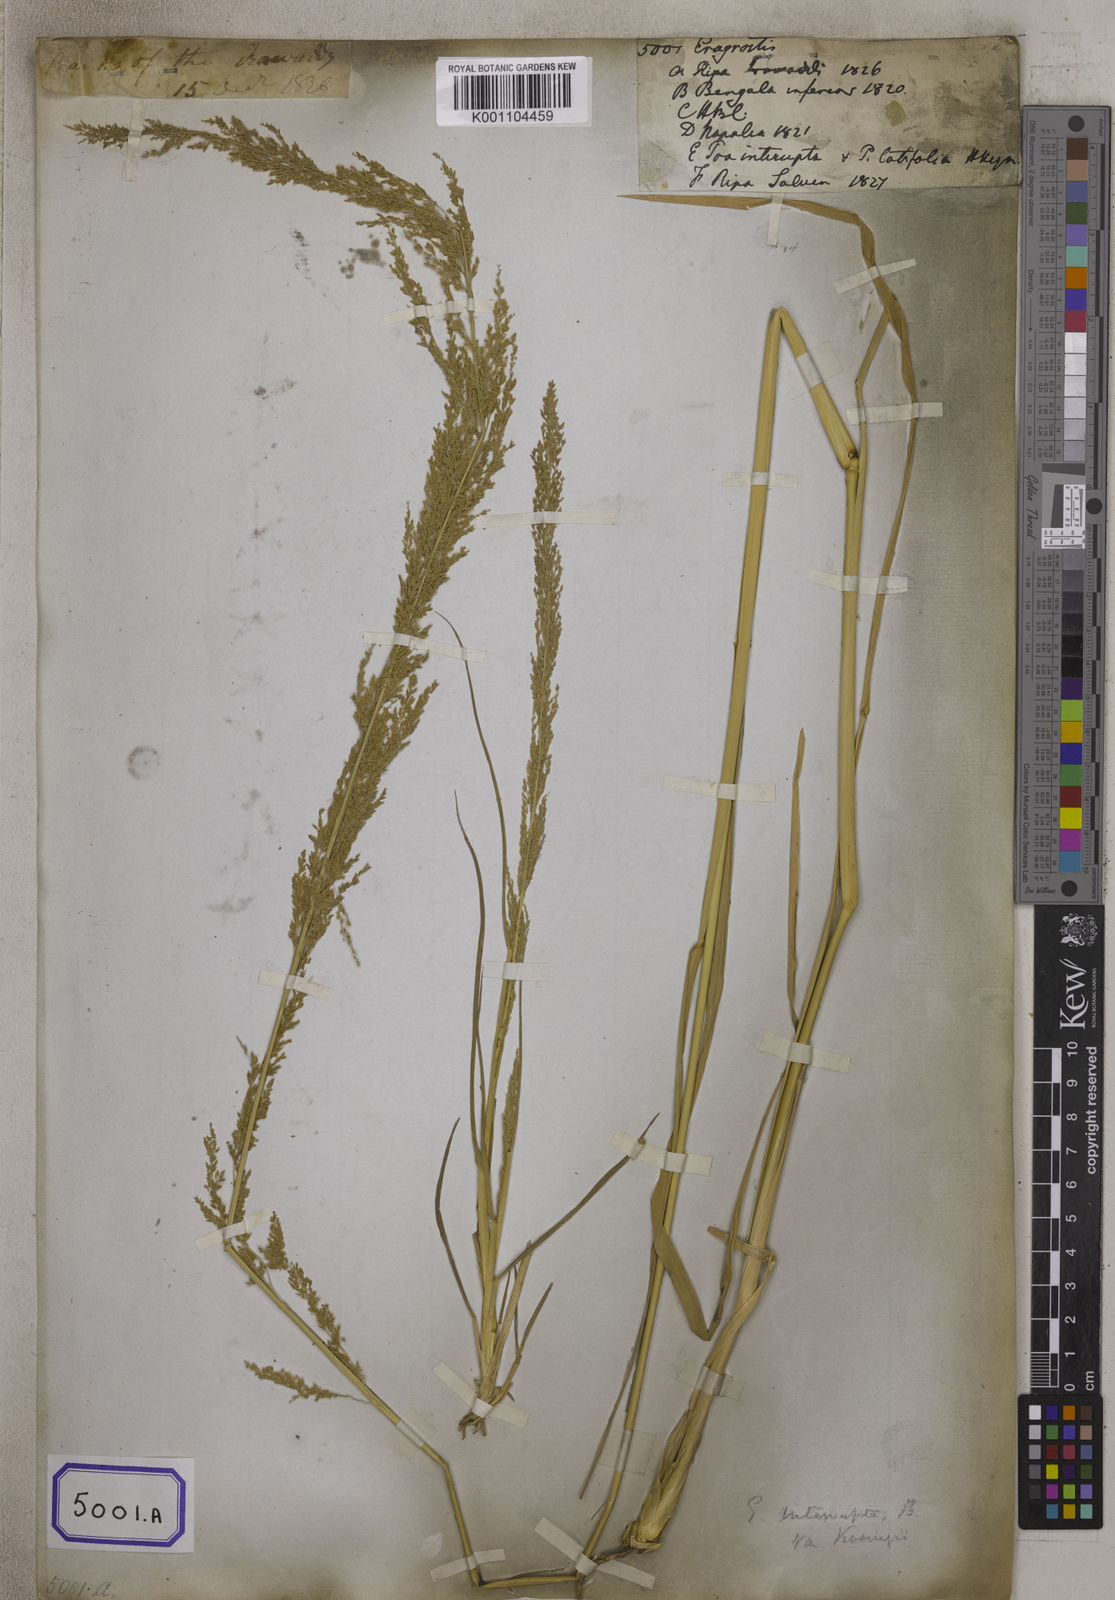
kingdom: Plantae
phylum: Tracheophyta
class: Liliopsida
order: Poales
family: Poaceae
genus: Eragrostis
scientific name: Eragrostis
